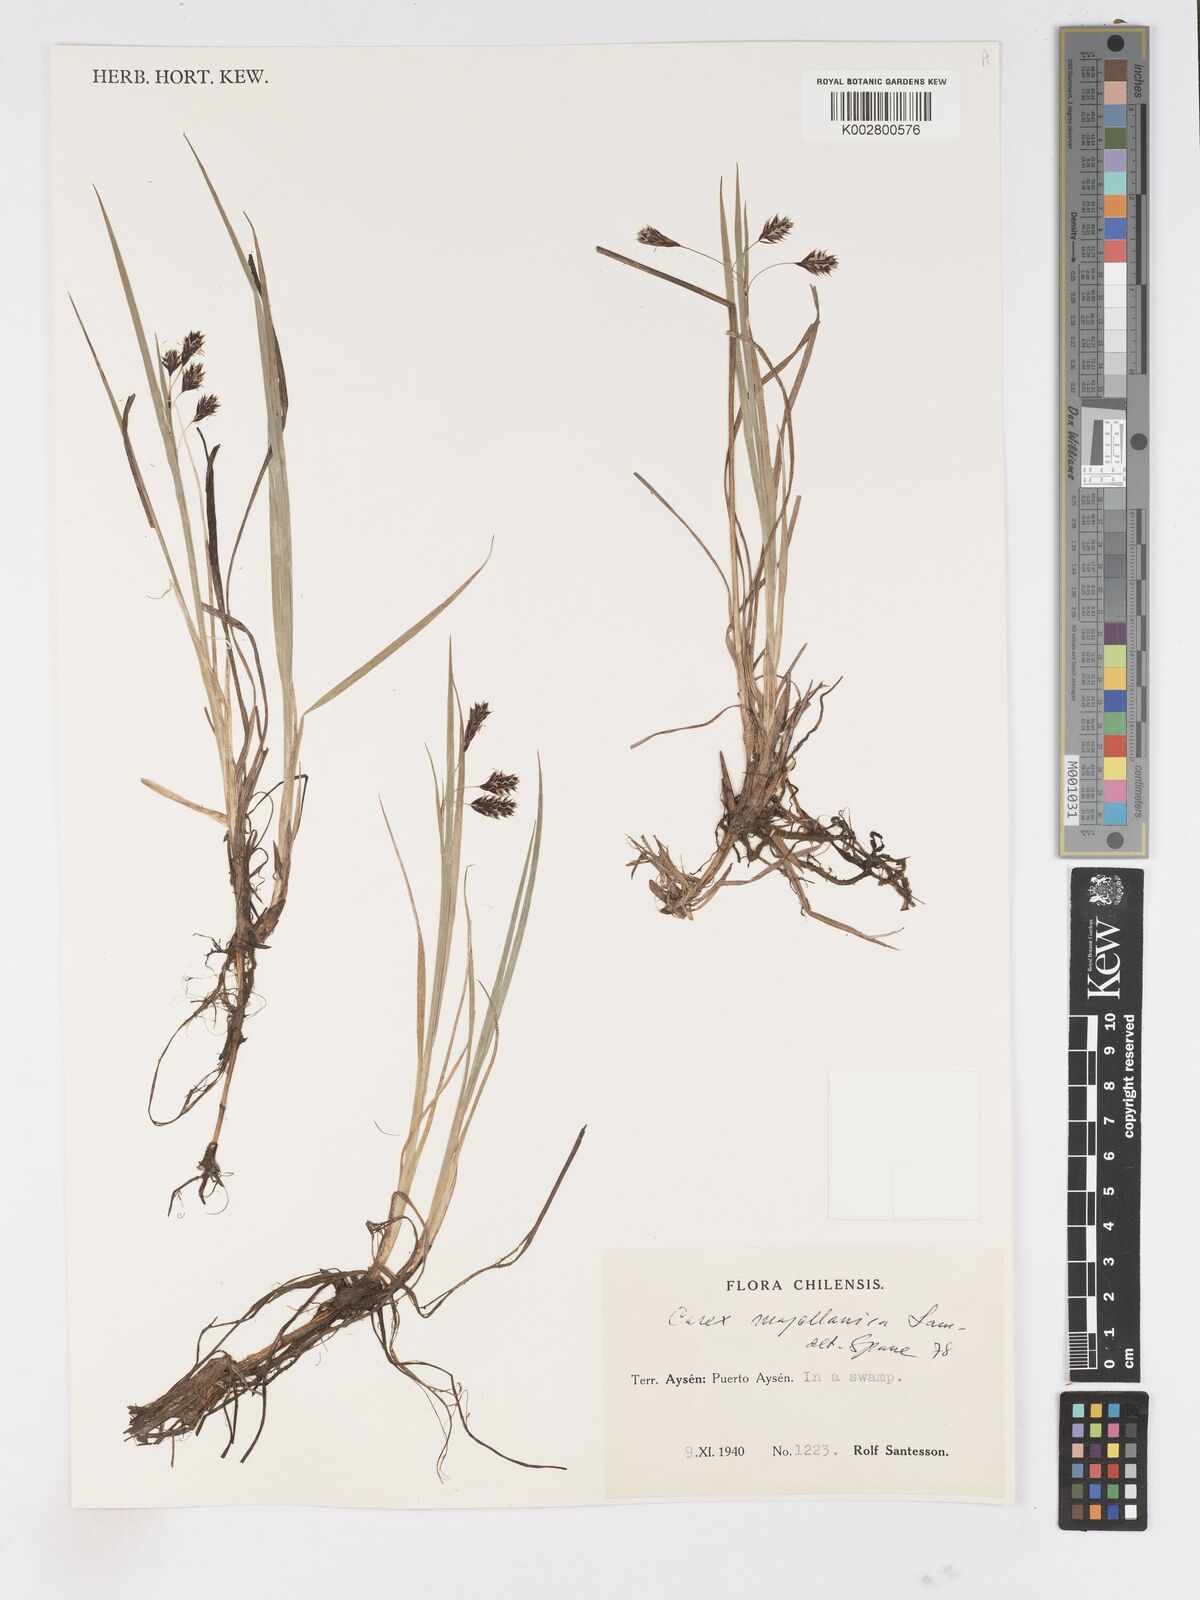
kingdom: Plantae
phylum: Tracheophyta
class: Liliopsida
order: Poales
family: Cyperaceae
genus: Carex
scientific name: Carex magellanica
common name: Bog sedge
